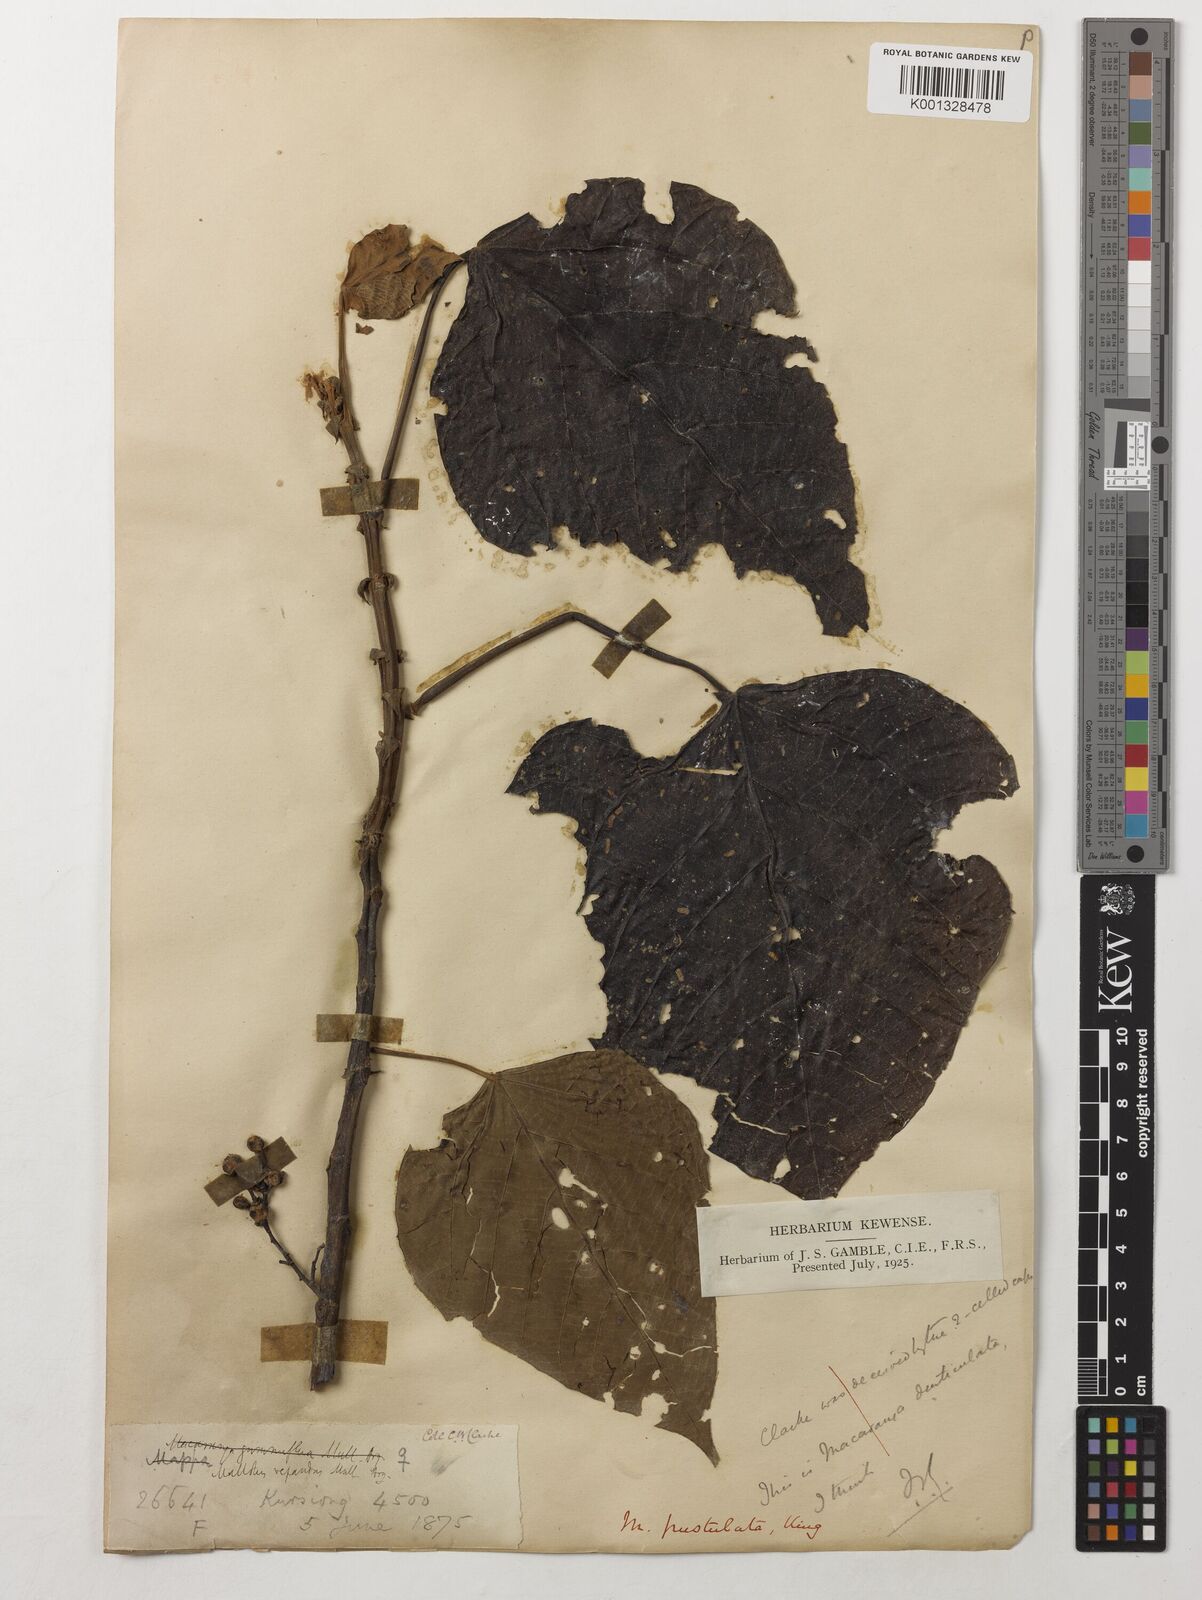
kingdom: Plantae
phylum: Tracheophyta
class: Magnoliopsida
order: Malpighiales
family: Euphorbiaceae
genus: Macaranga
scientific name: Macaranga denticulata
